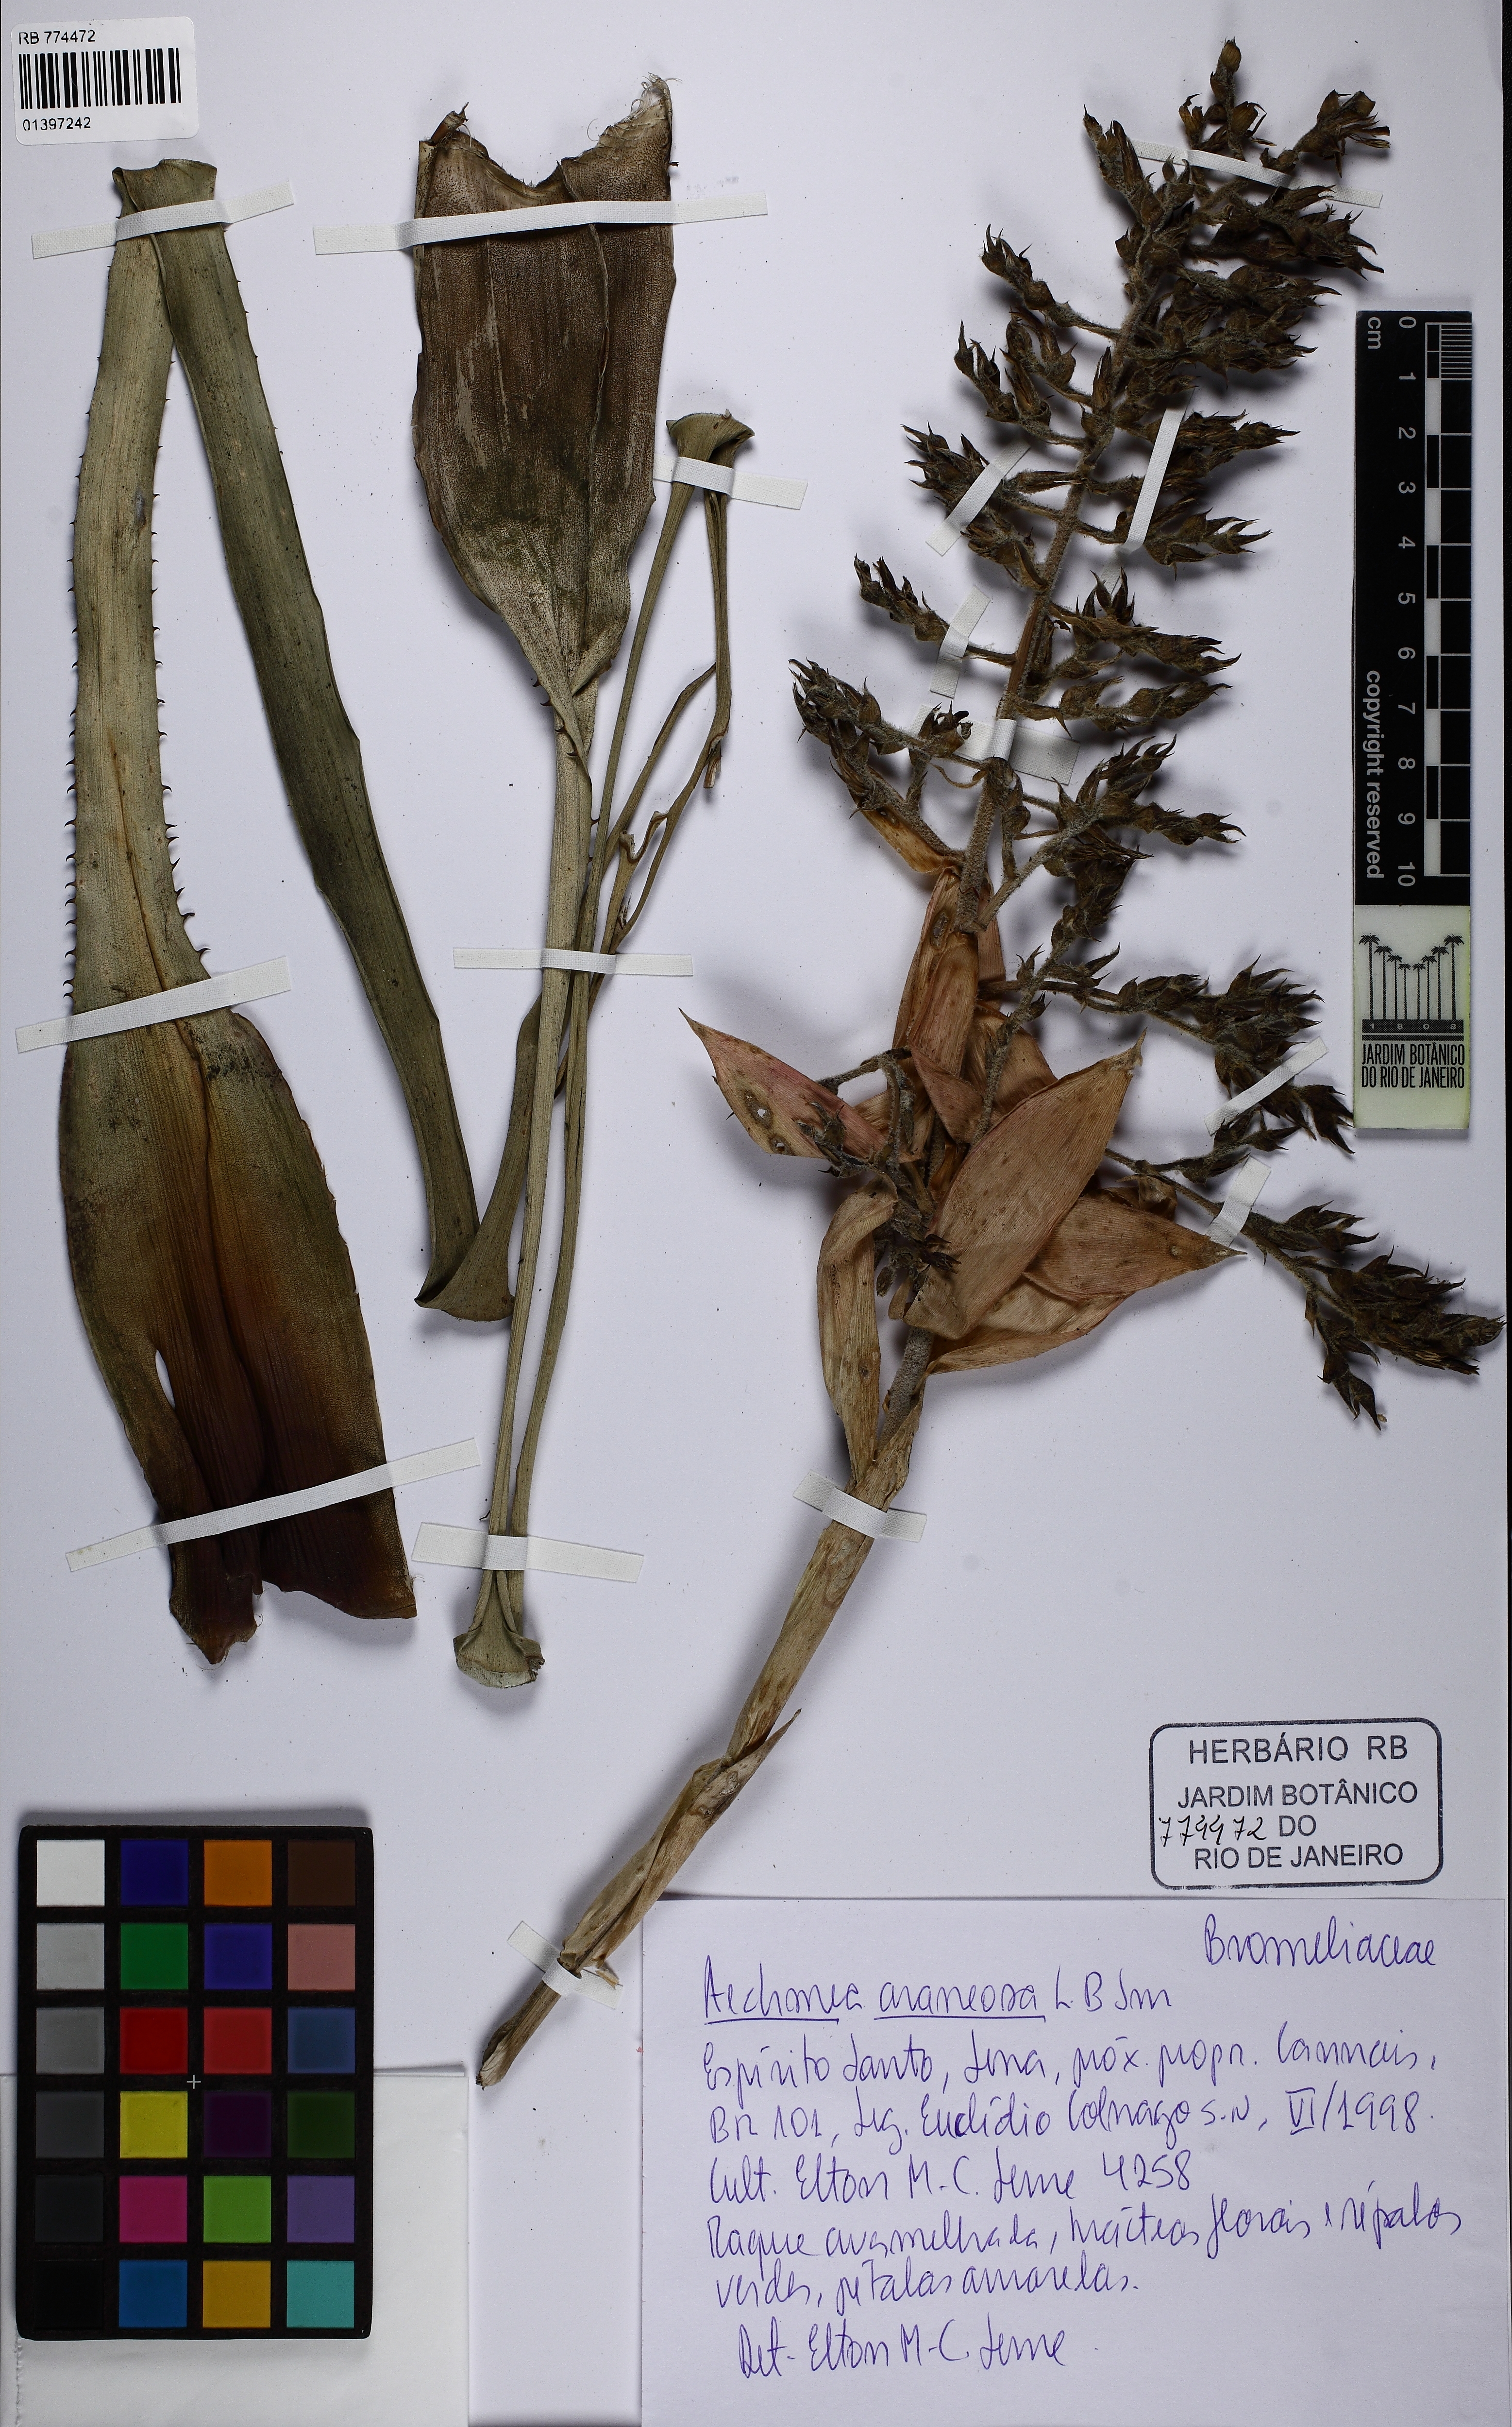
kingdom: Plantae
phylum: Tracheophyta
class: Liliopsida
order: Poales
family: Bromeliaceae
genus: Aechmea
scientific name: Aechmea araneosa
